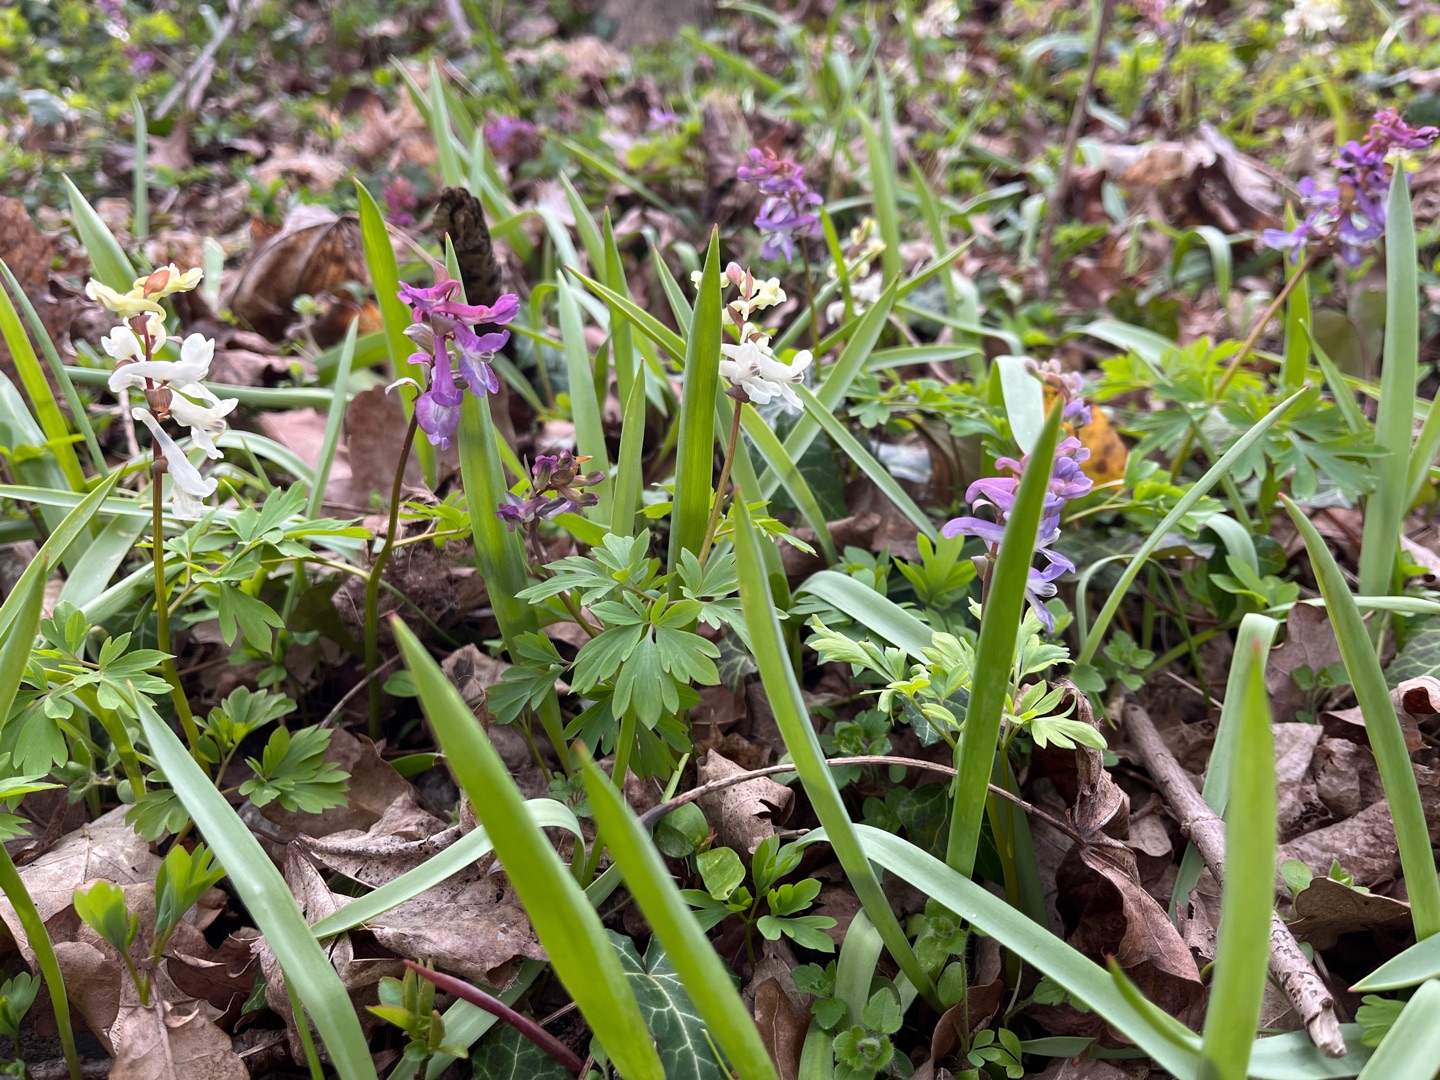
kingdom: Plantae
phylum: Tracheophyta
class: Magnoliopsida
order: Ranunculales
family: Papaveraceae
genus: Corydalis
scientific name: Corydalis cava
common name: Hulrodet lærkespore
